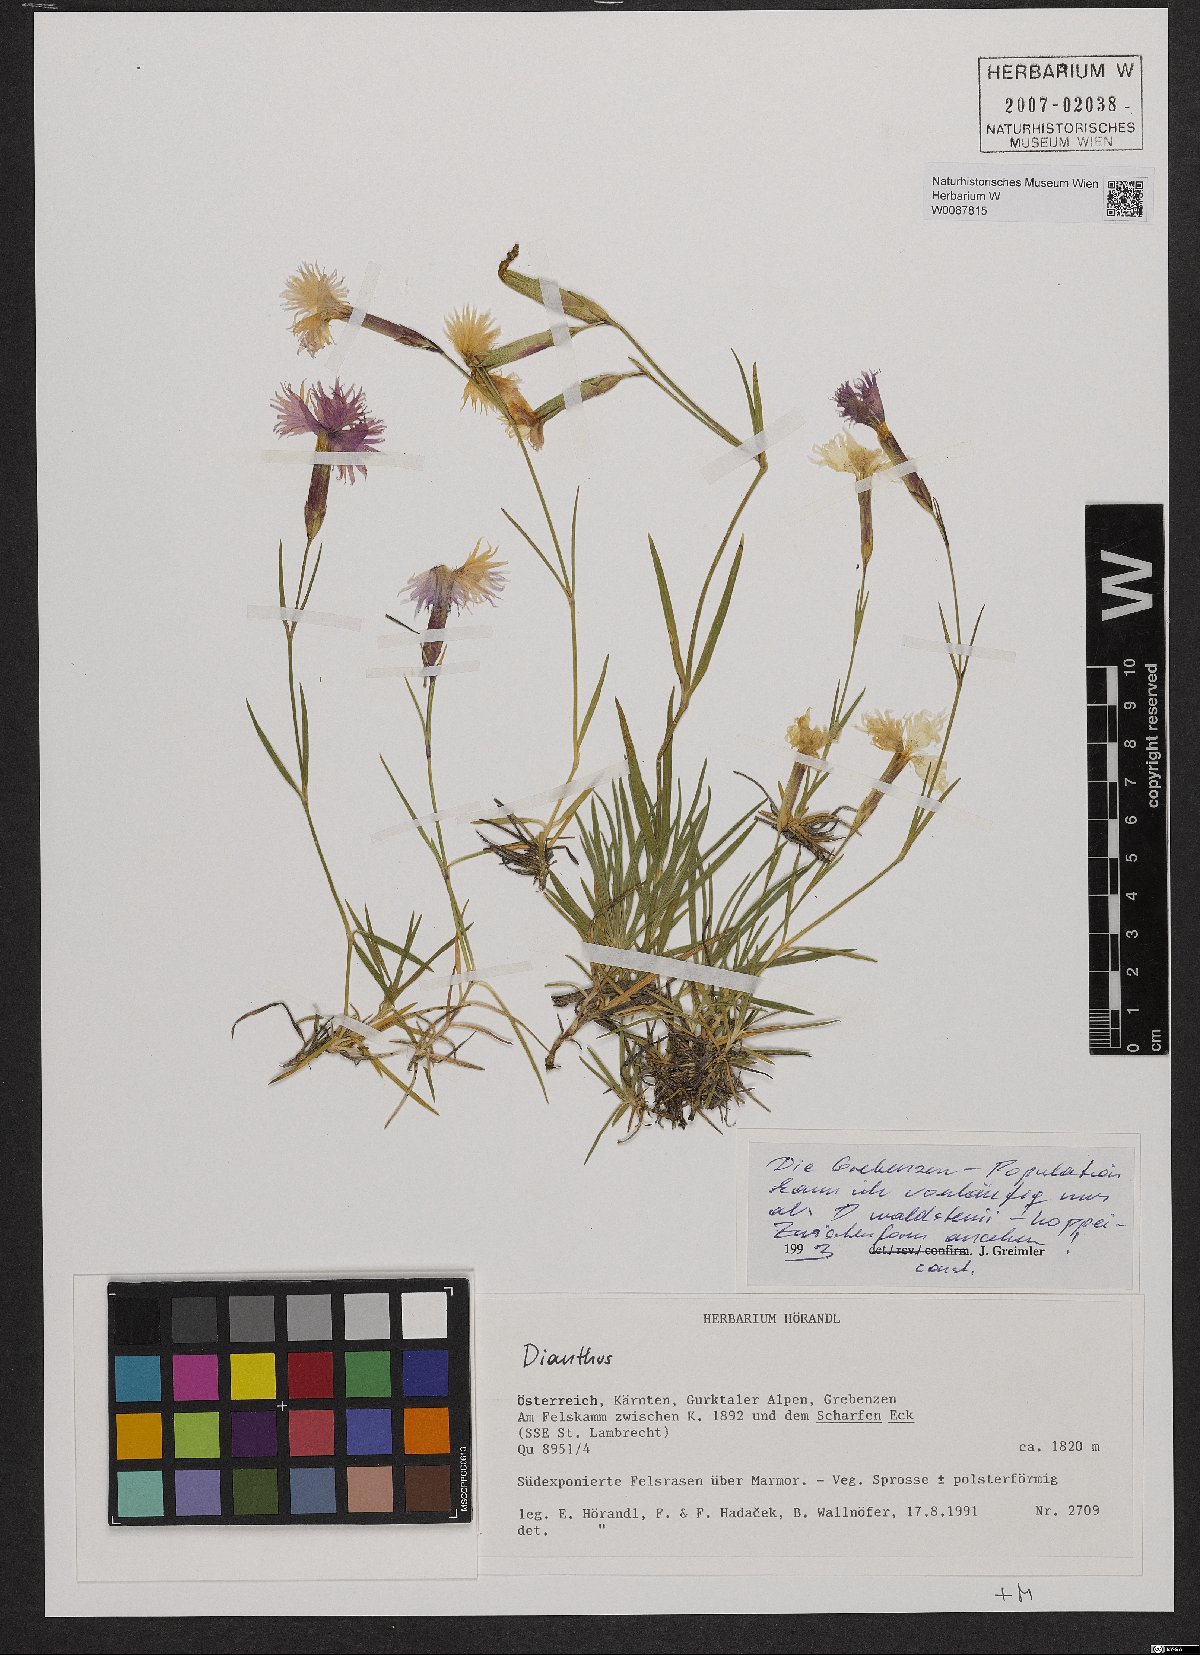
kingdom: Plantae
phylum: Tracheophyta
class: Magnoliopsida
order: Caryophyllales
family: Caryophyllaceae
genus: Dianthus
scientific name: Dianthus
